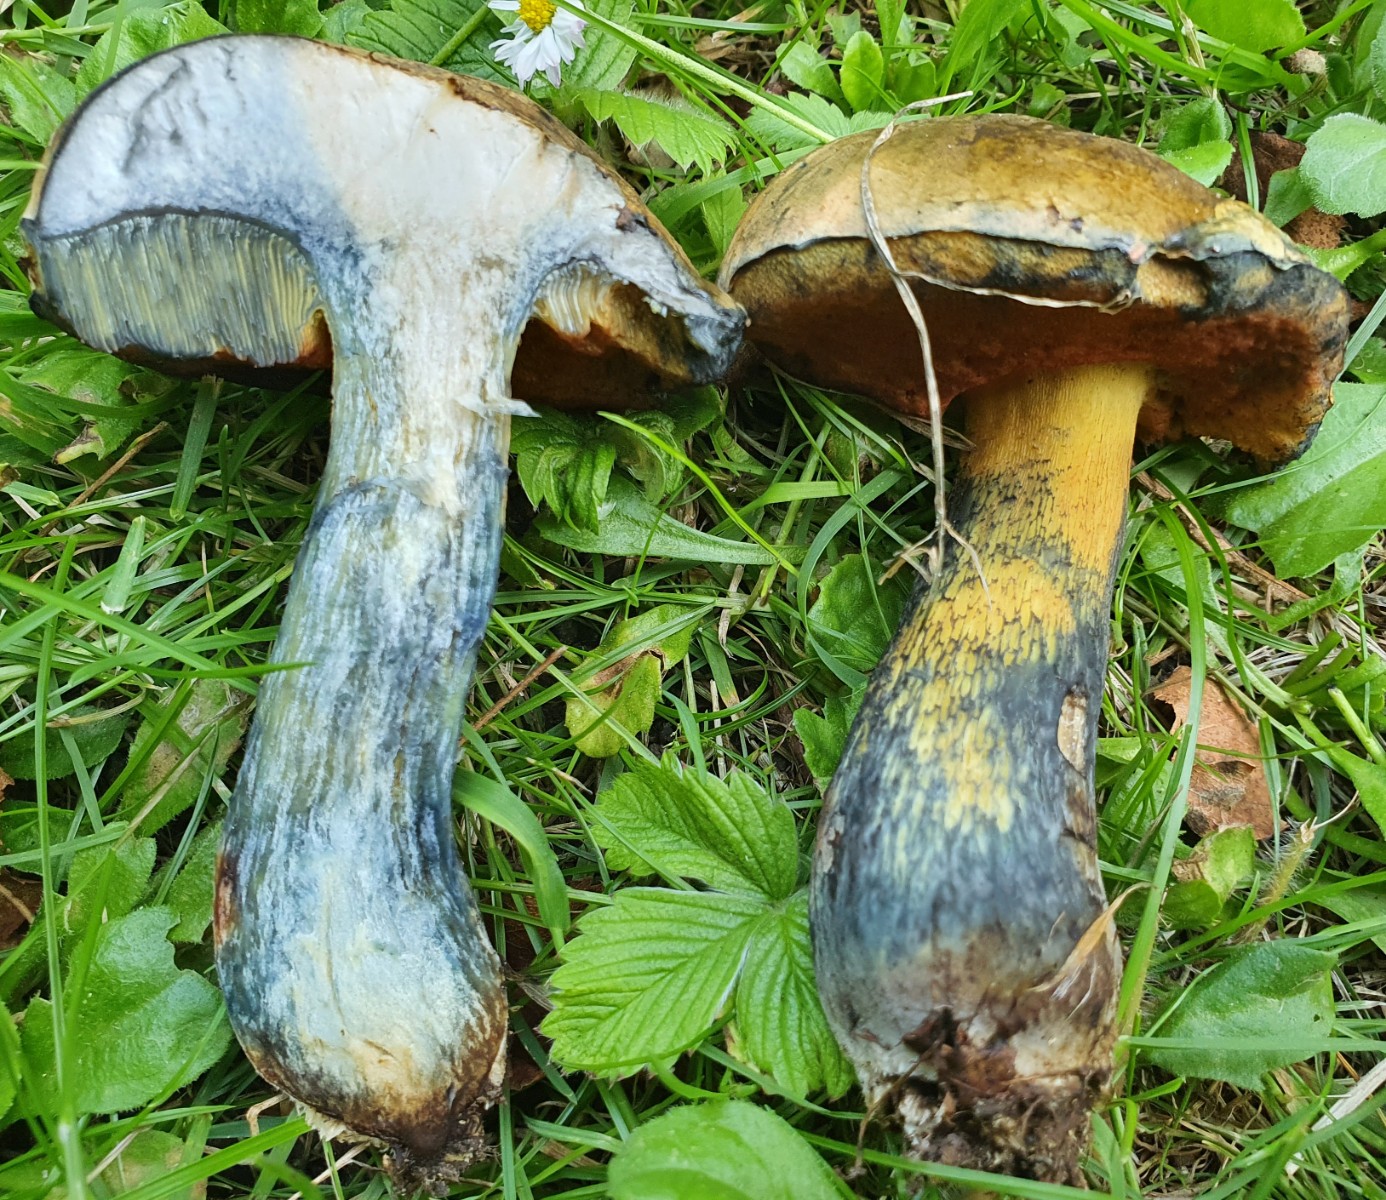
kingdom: Fungi
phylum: Basidiomycota
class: Agaricomycetes
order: Boletales
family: Boletaceae
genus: Suillellus
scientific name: Suillellus luridus
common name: netstokket indigorørhat
